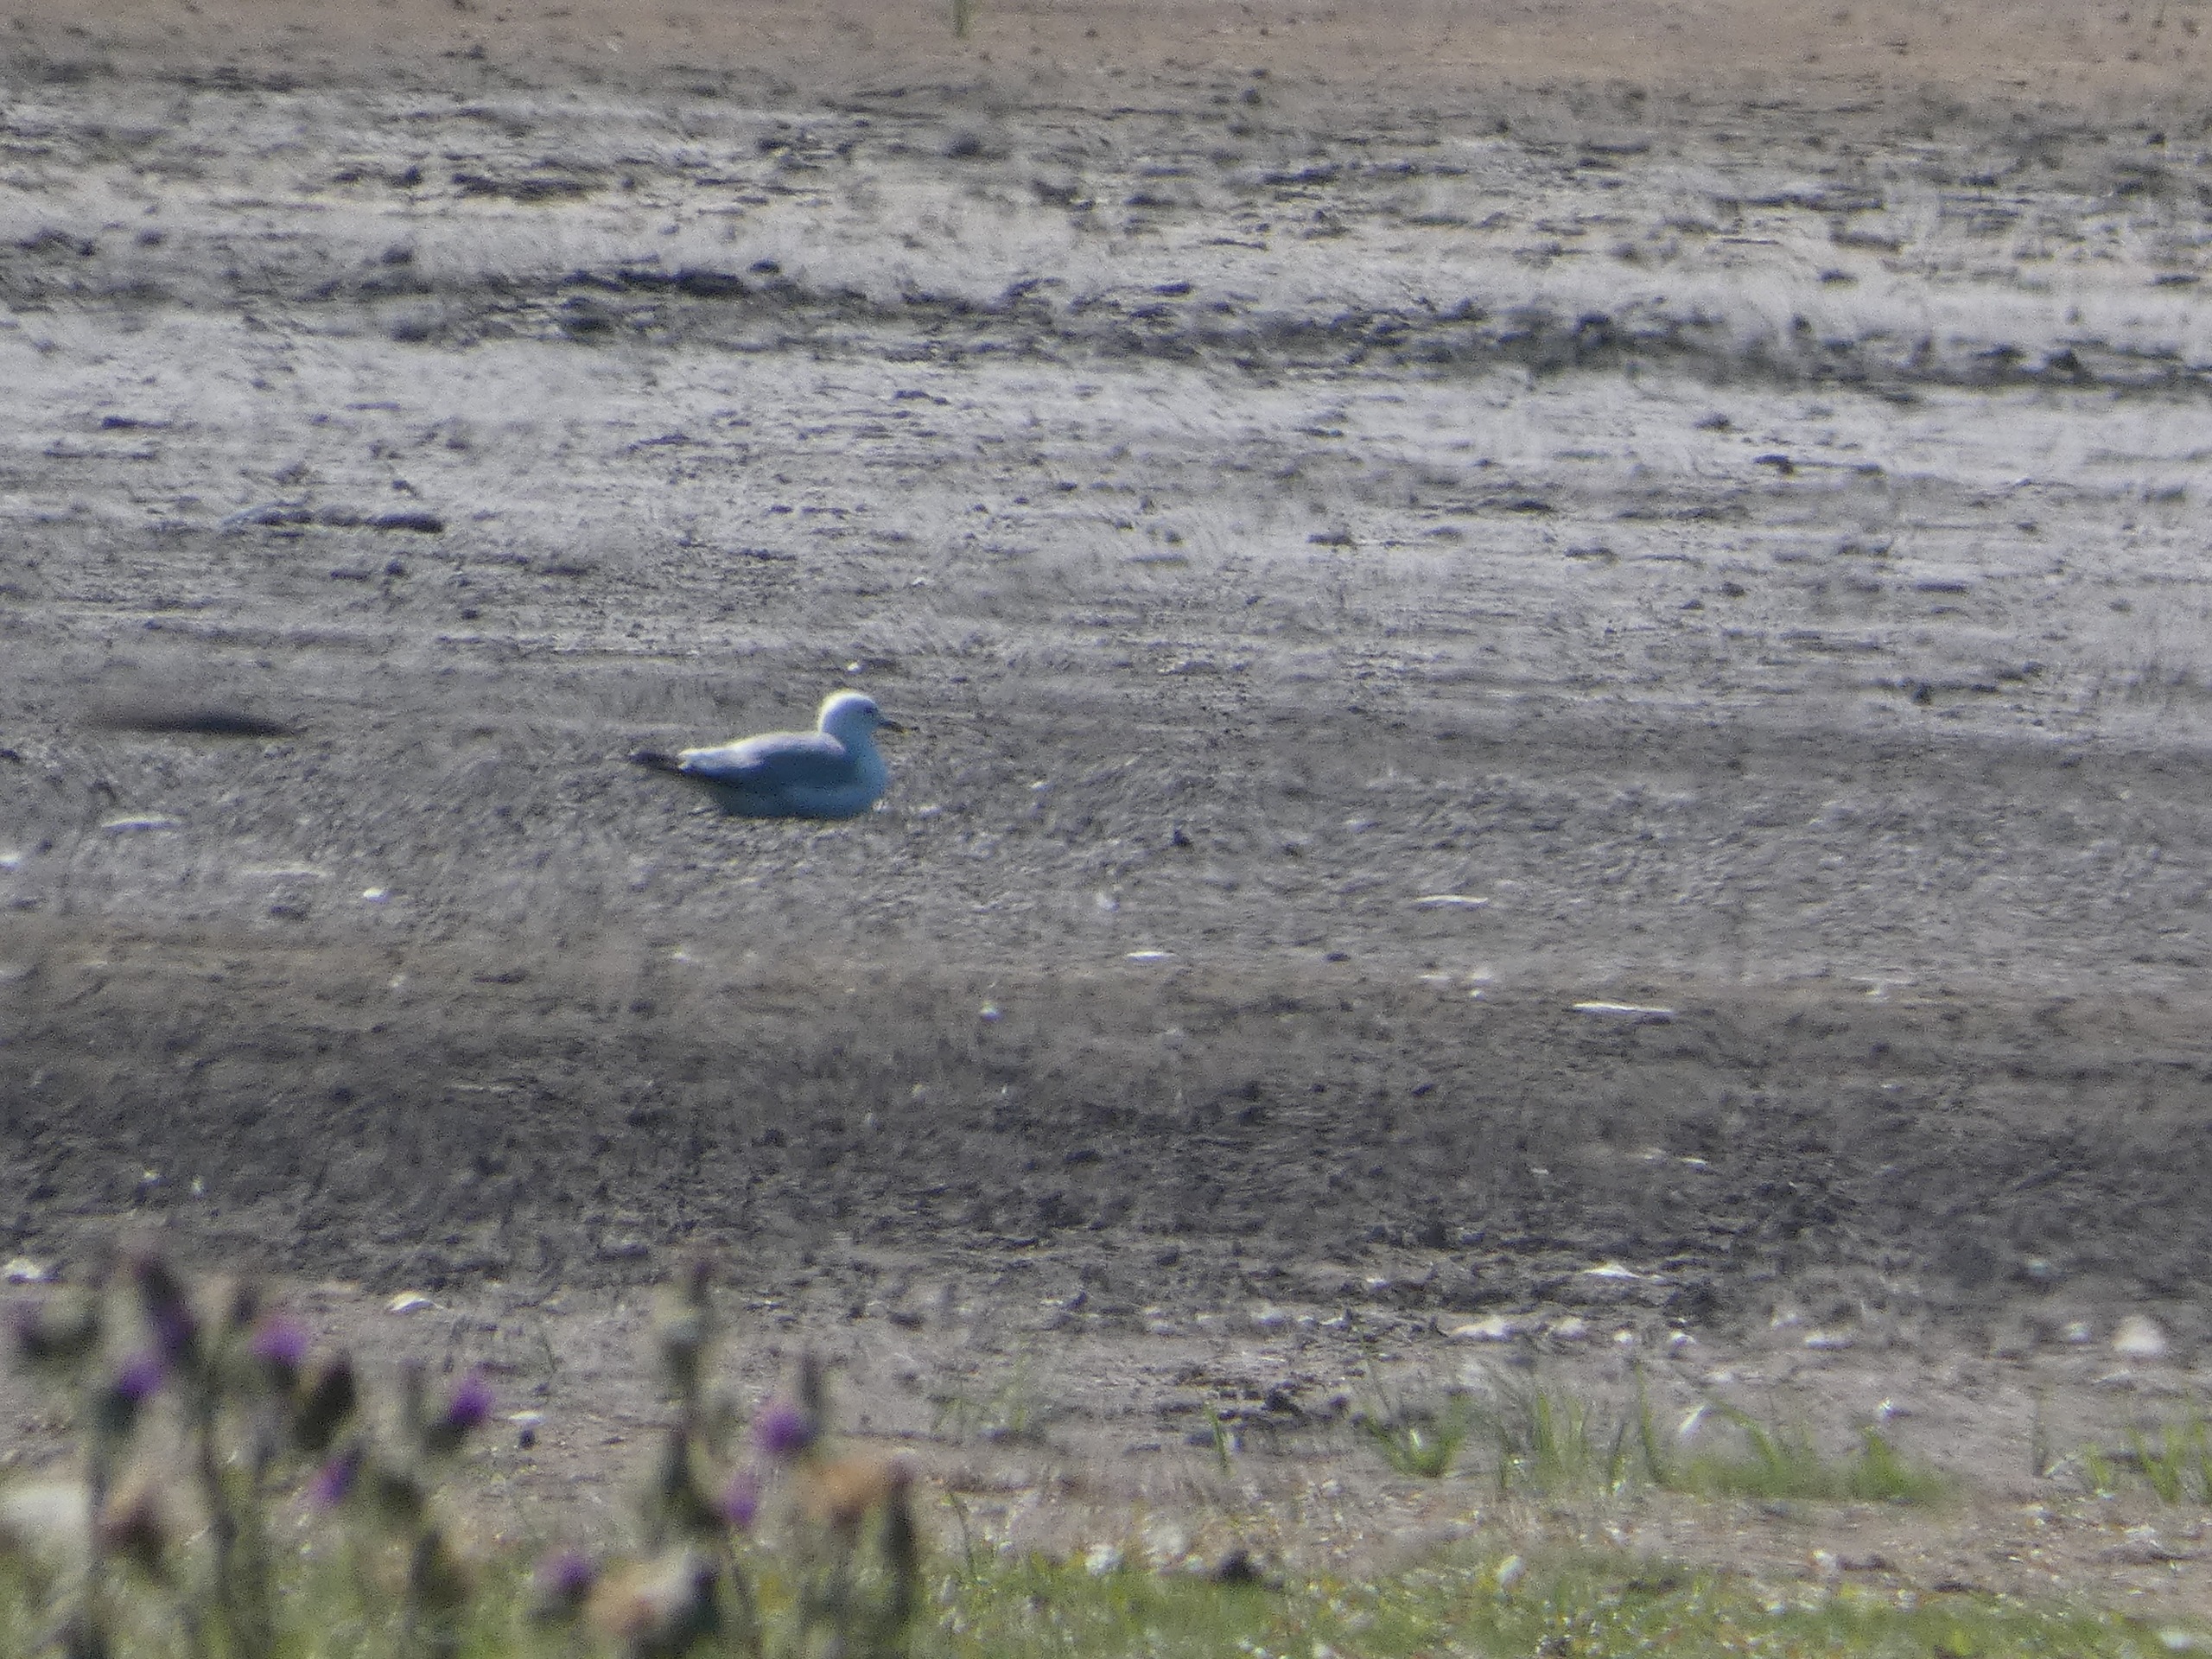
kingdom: Animalia
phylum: Chordata
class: Aves
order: Charadriiformes
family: Laridae
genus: Larus
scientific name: Larus canus
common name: Stormmåge
